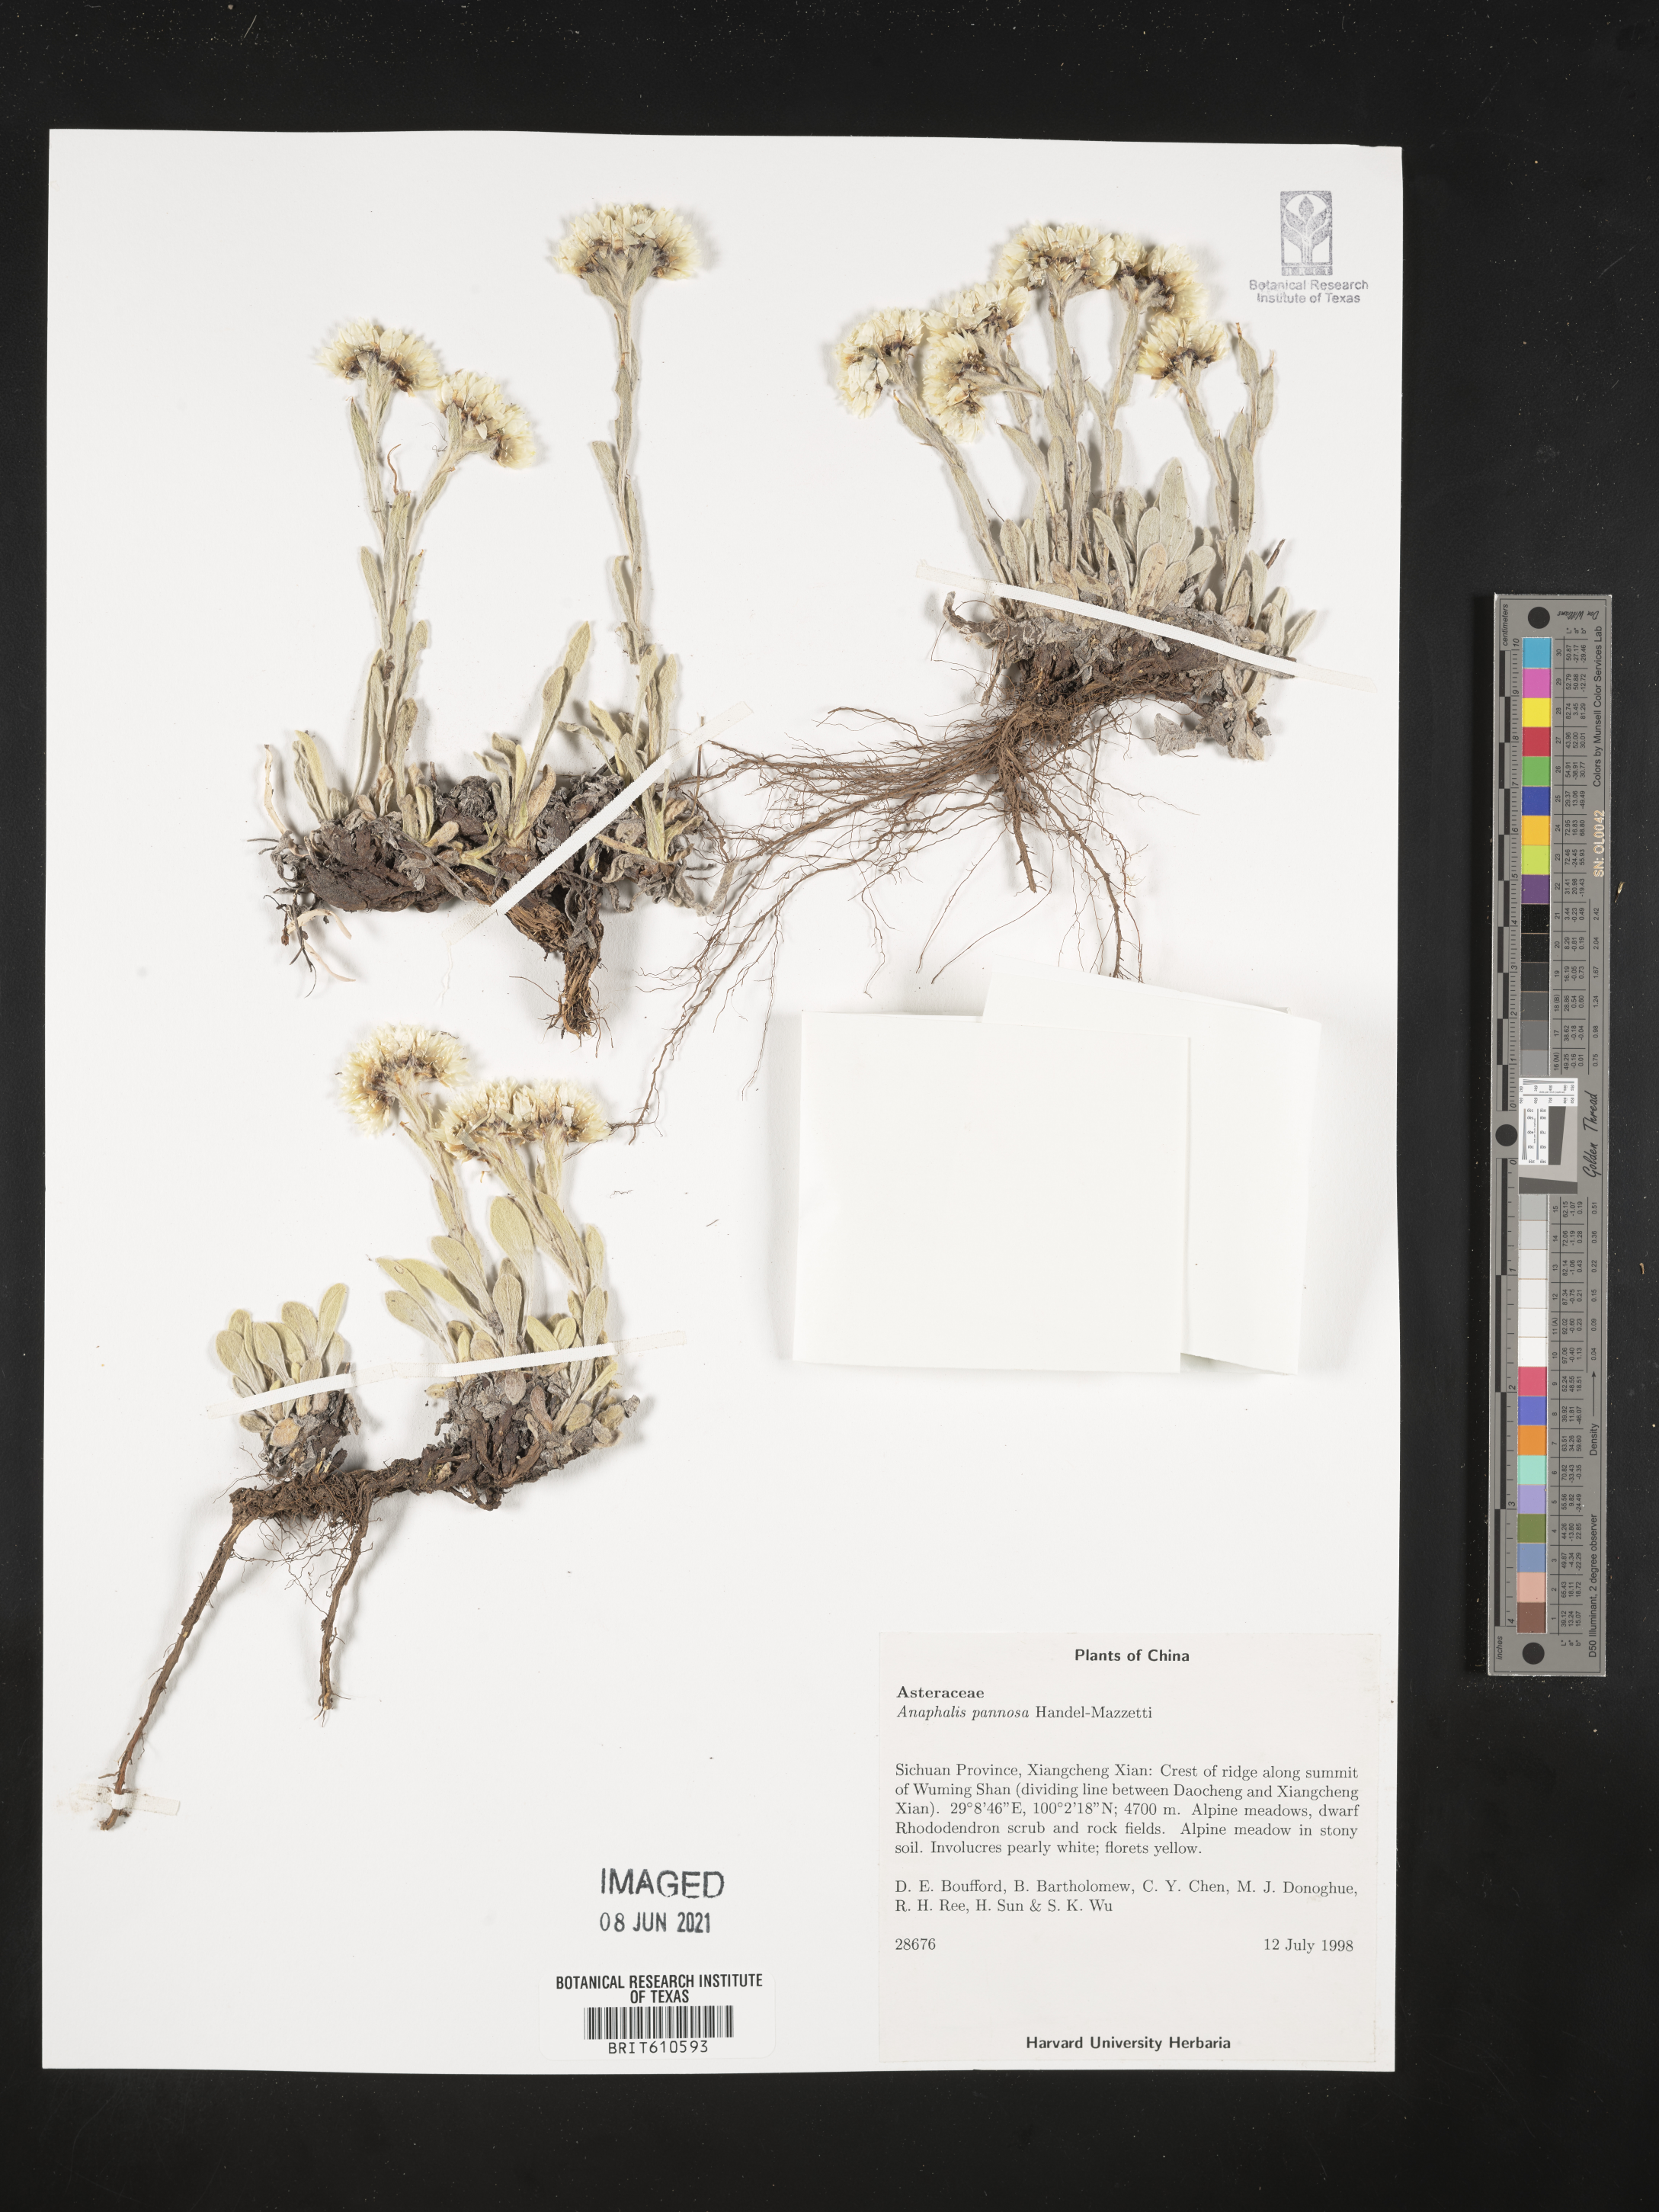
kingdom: Plantae
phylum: Tracheophyta
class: Magnoliopsida
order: Asterales
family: Asteraceae
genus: Anaphalis
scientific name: Anaphalis pannosa
